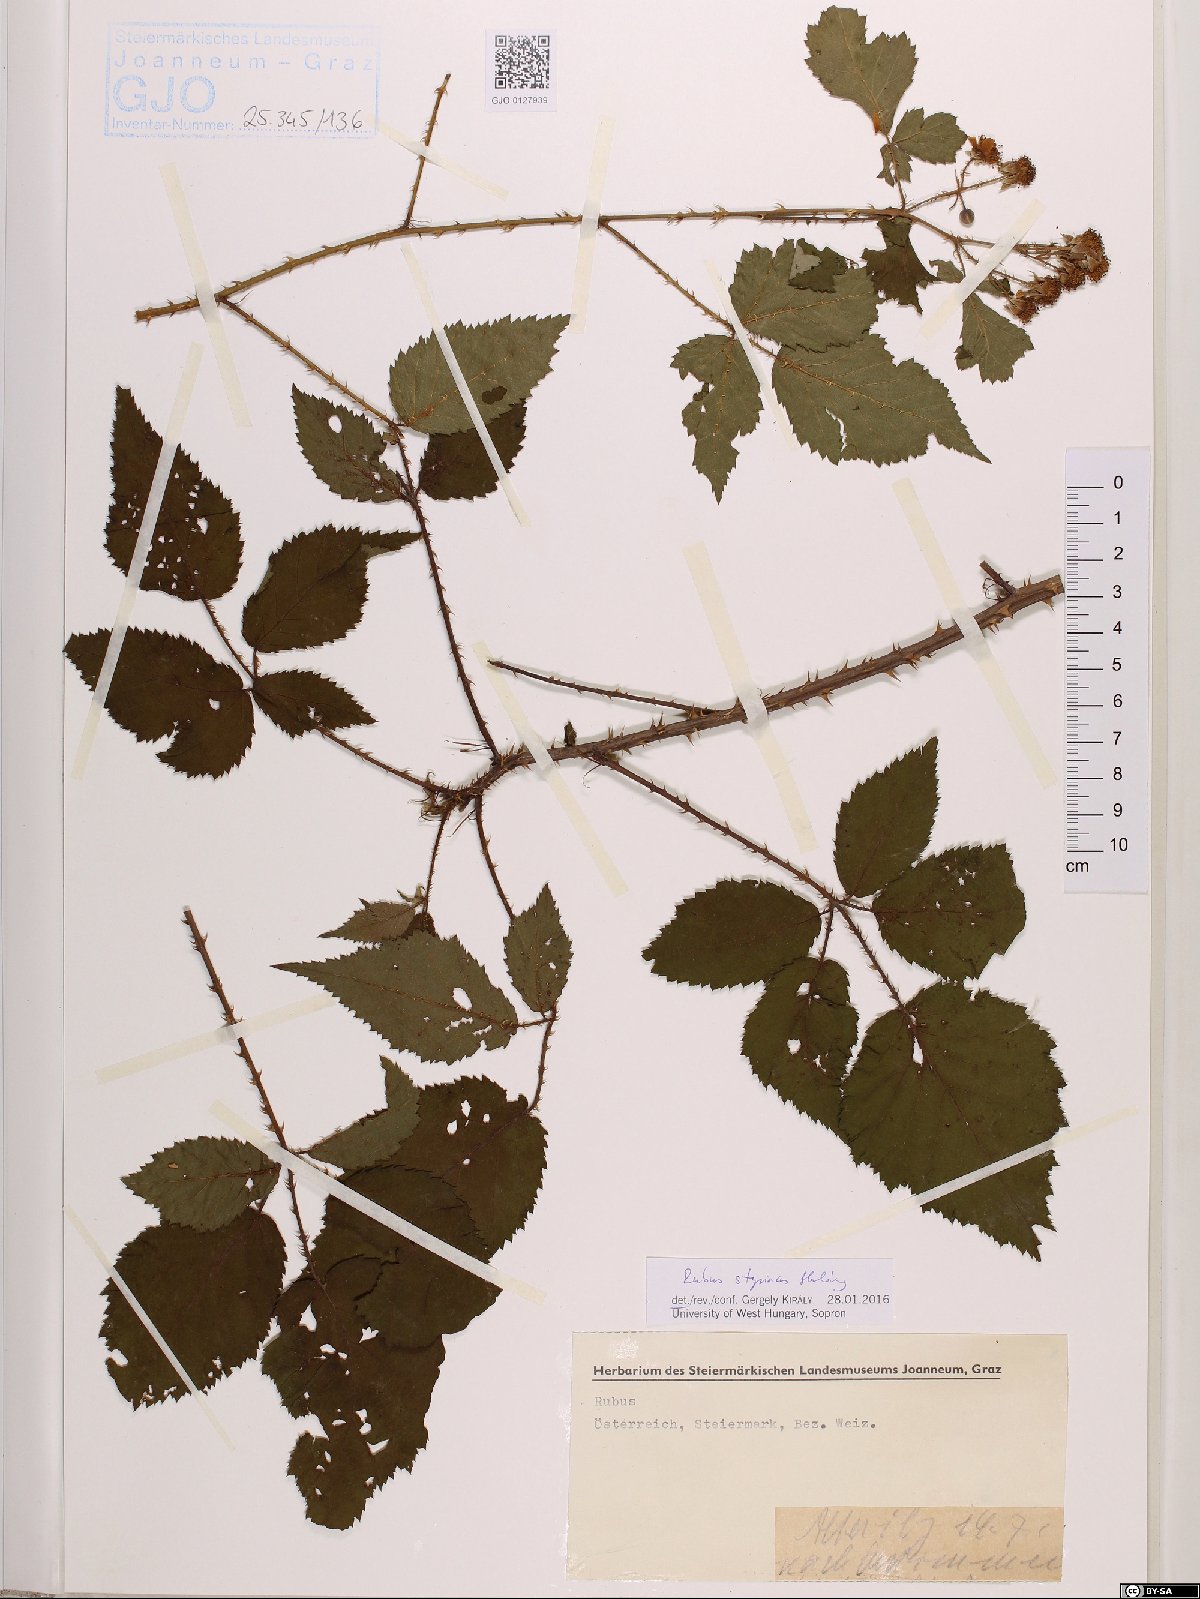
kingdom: Plantae
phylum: Tracheophyta
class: Magnoliopsida
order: Rosales
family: Rosaceae
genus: Rubus
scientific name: Rubus styriacus
